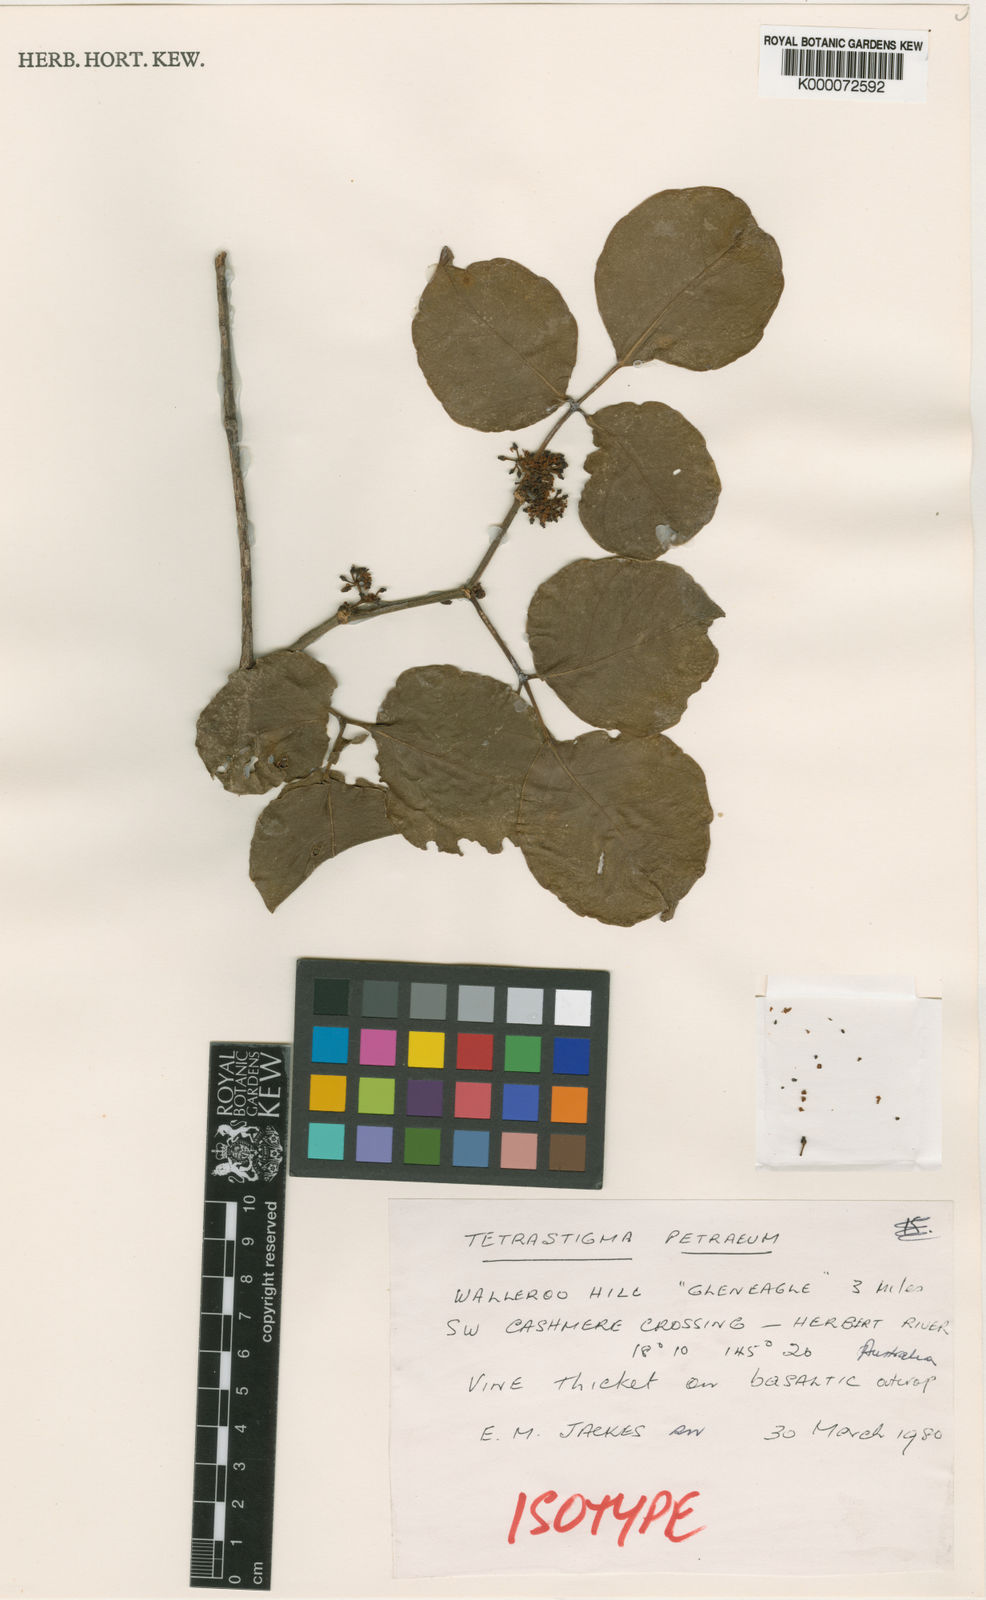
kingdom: Plantae
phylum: Tracheophyta
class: Magnoliopsida
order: Vitales
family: Vitaceae
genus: Tetrastigma
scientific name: Tetrastigma petraeum
